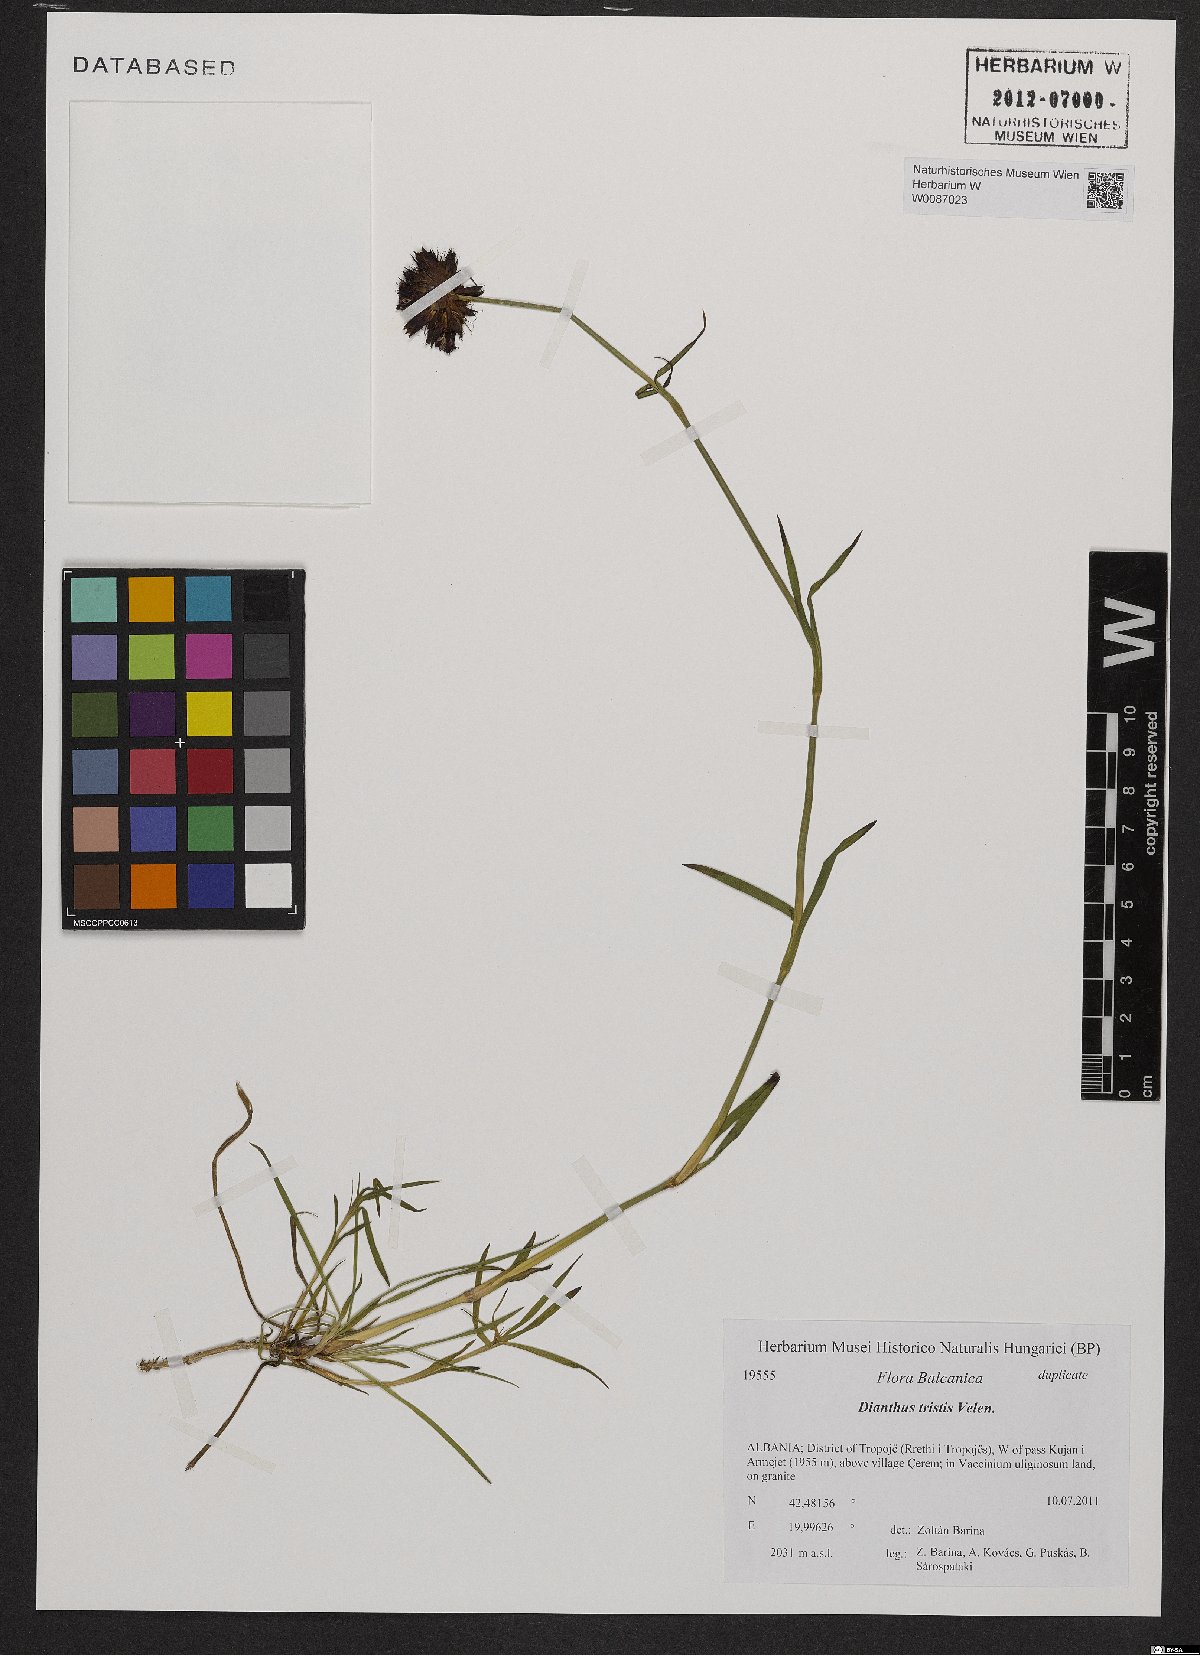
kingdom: Plantae
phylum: Tracheophyta
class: Magnoliopsida
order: Caryophyllales
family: Caryophyllaceae
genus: Dianthus
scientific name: Dianthus pancicii
